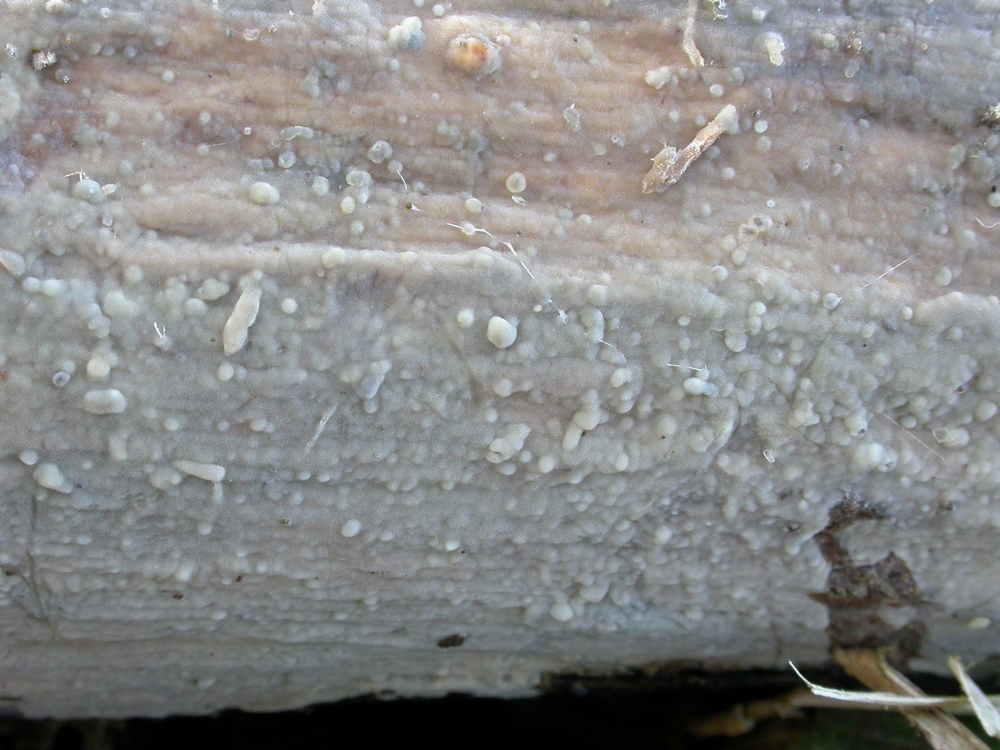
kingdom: Fungi
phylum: Basidiomycota
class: Agaricomycetes
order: Agaricales
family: Radulomycetaceae
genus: Radulomyces
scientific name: Radulomyces confluens
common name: glat naftalinskind
